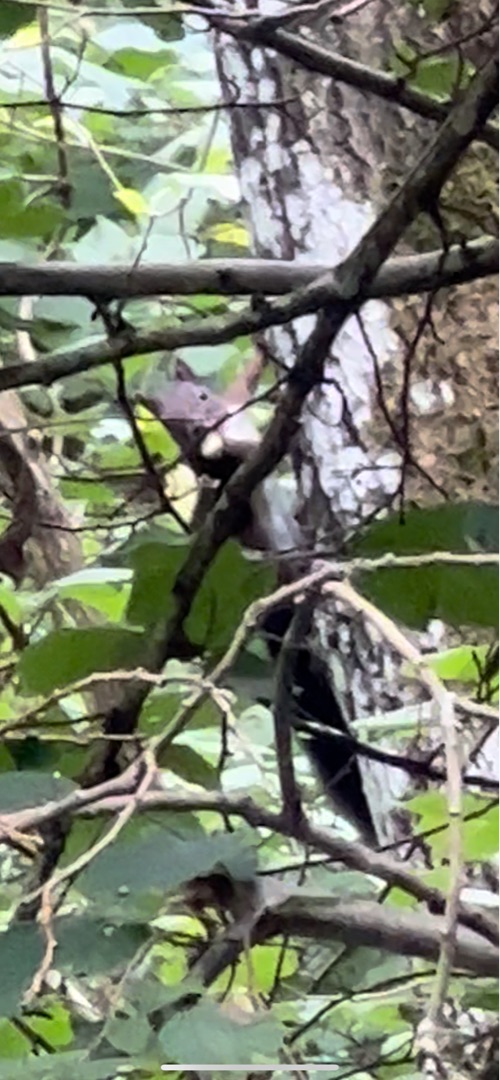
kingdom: Animalia
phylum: Chordata
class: Mammalia
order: Rodentia
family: Sciuridae
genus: Sciurus
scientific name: Sciurus vulgaris
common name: Egern
